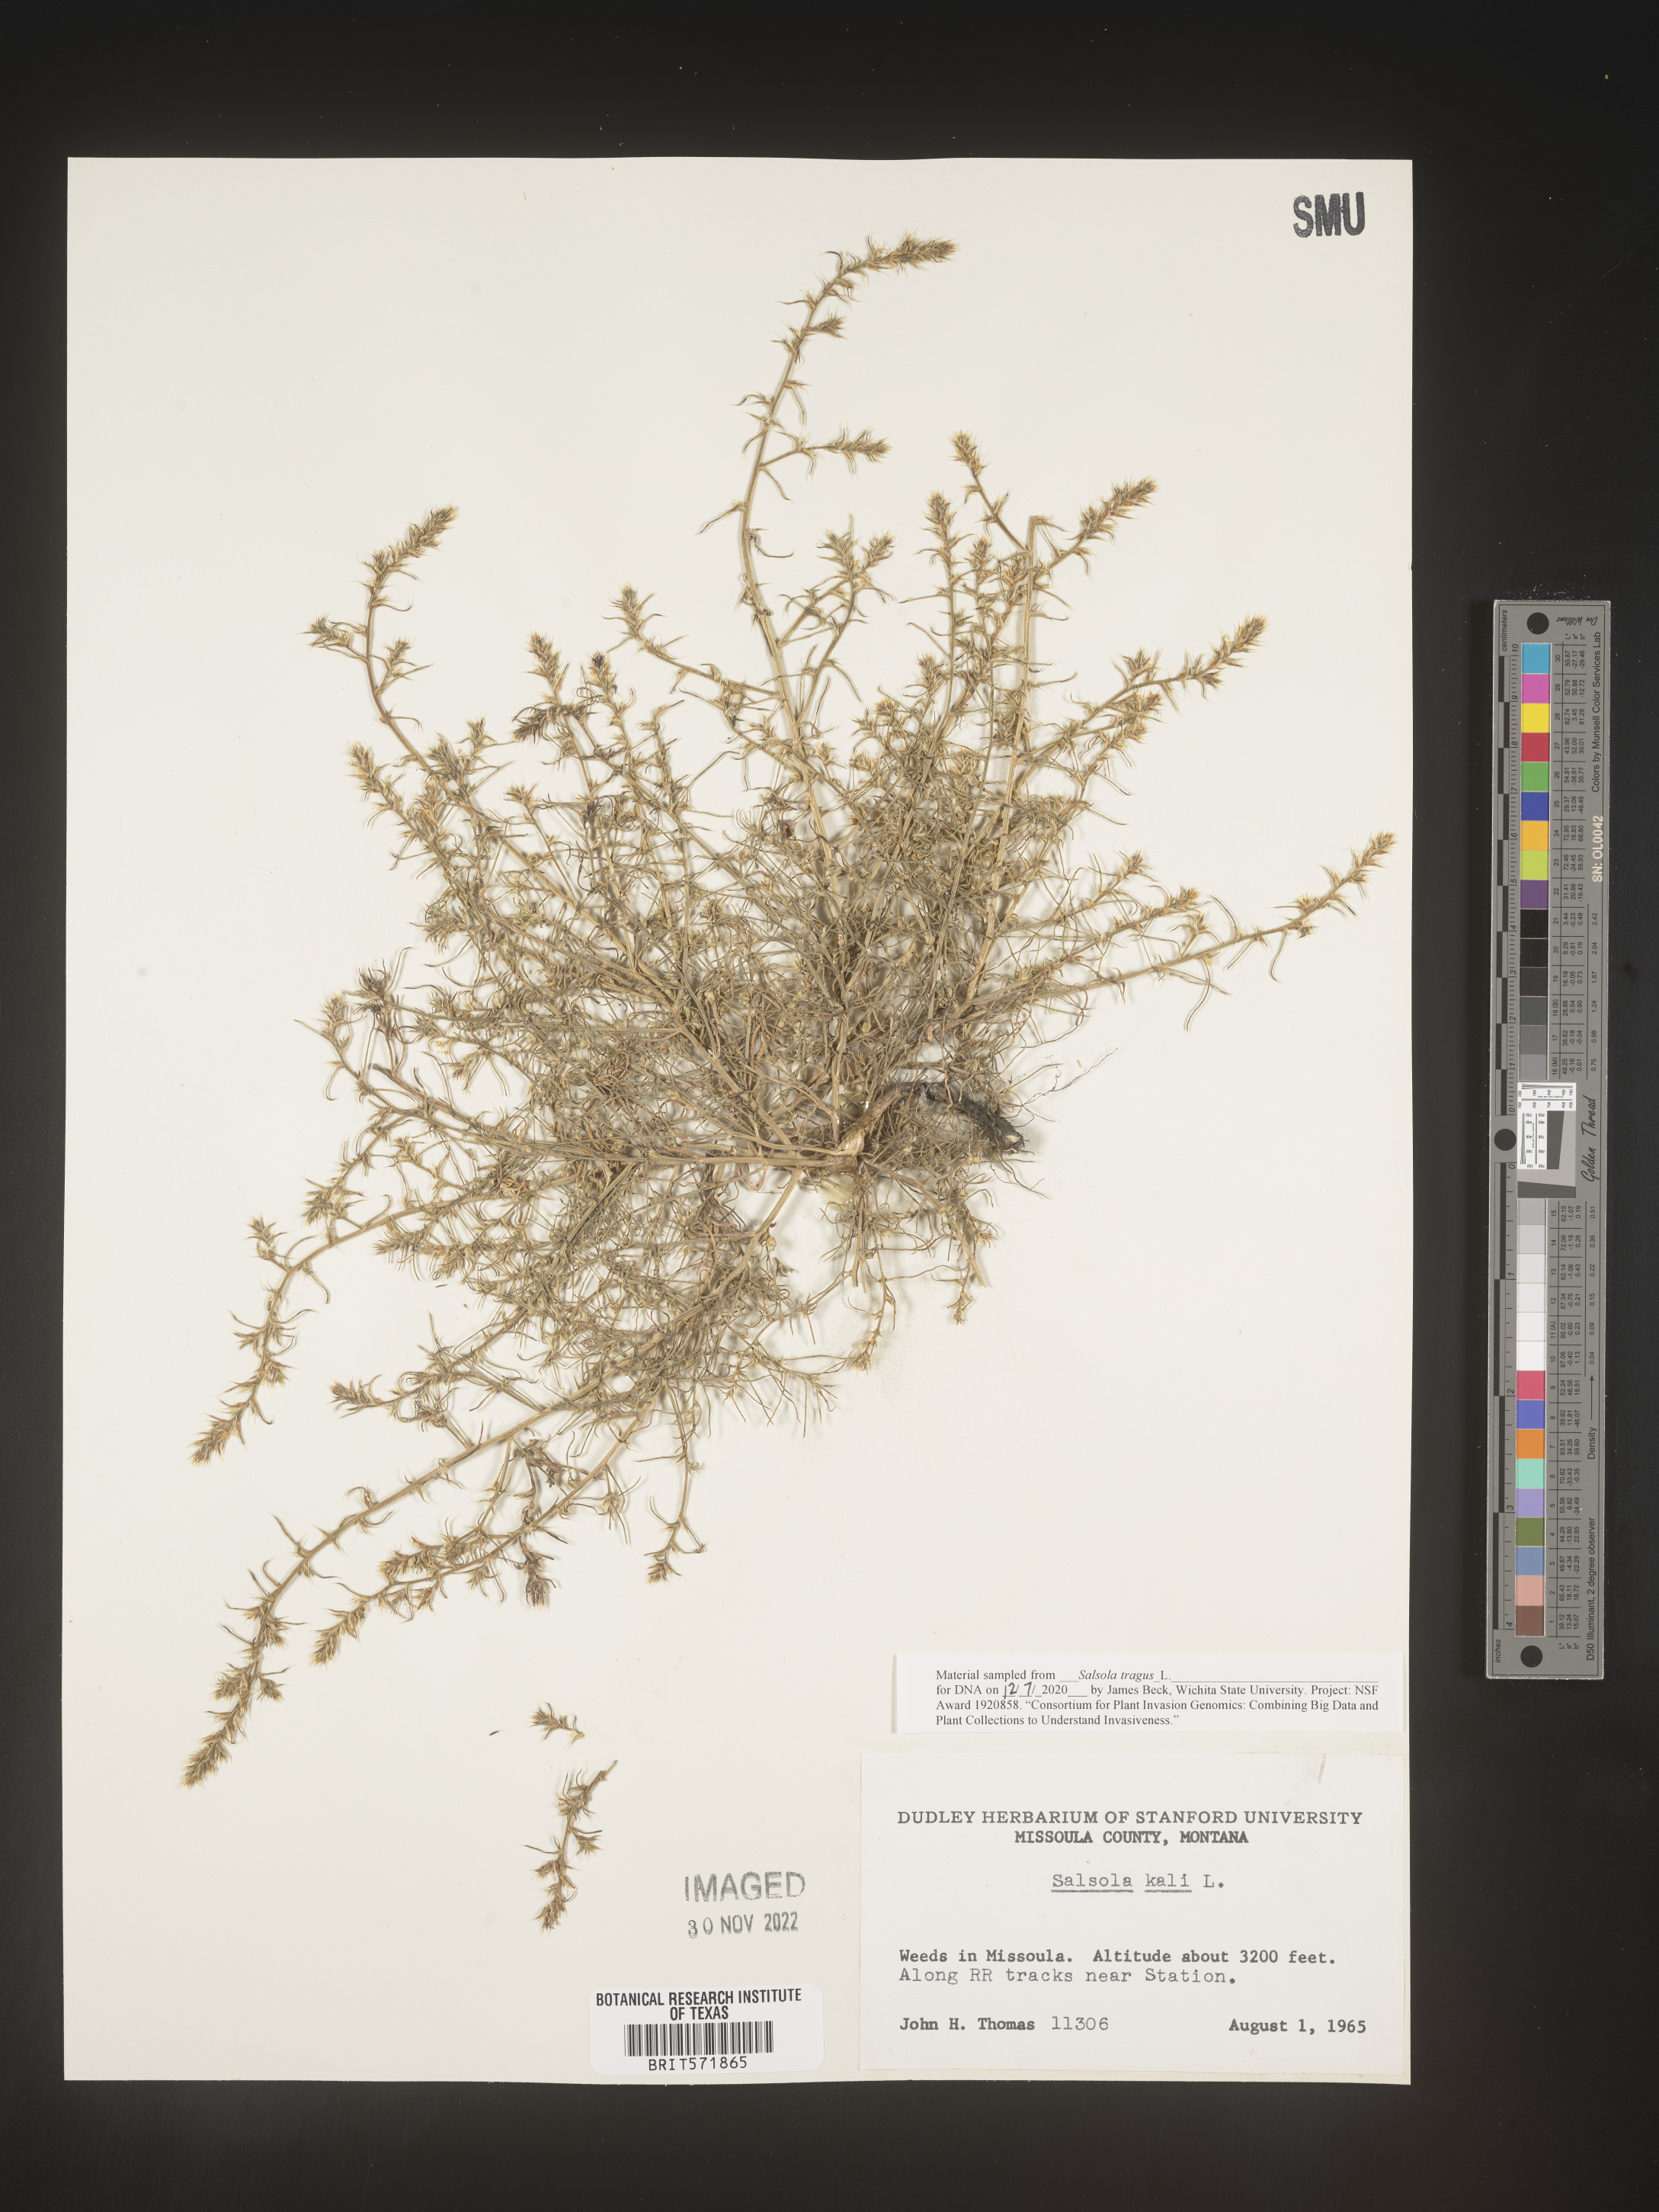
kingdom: Plantae
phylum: Tracheophyta
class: Magnoliopsida
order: Caryophyllales
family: Amaranthaceae
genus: Salsola
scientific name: Salsola tragus
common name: Prickly russian thistle
